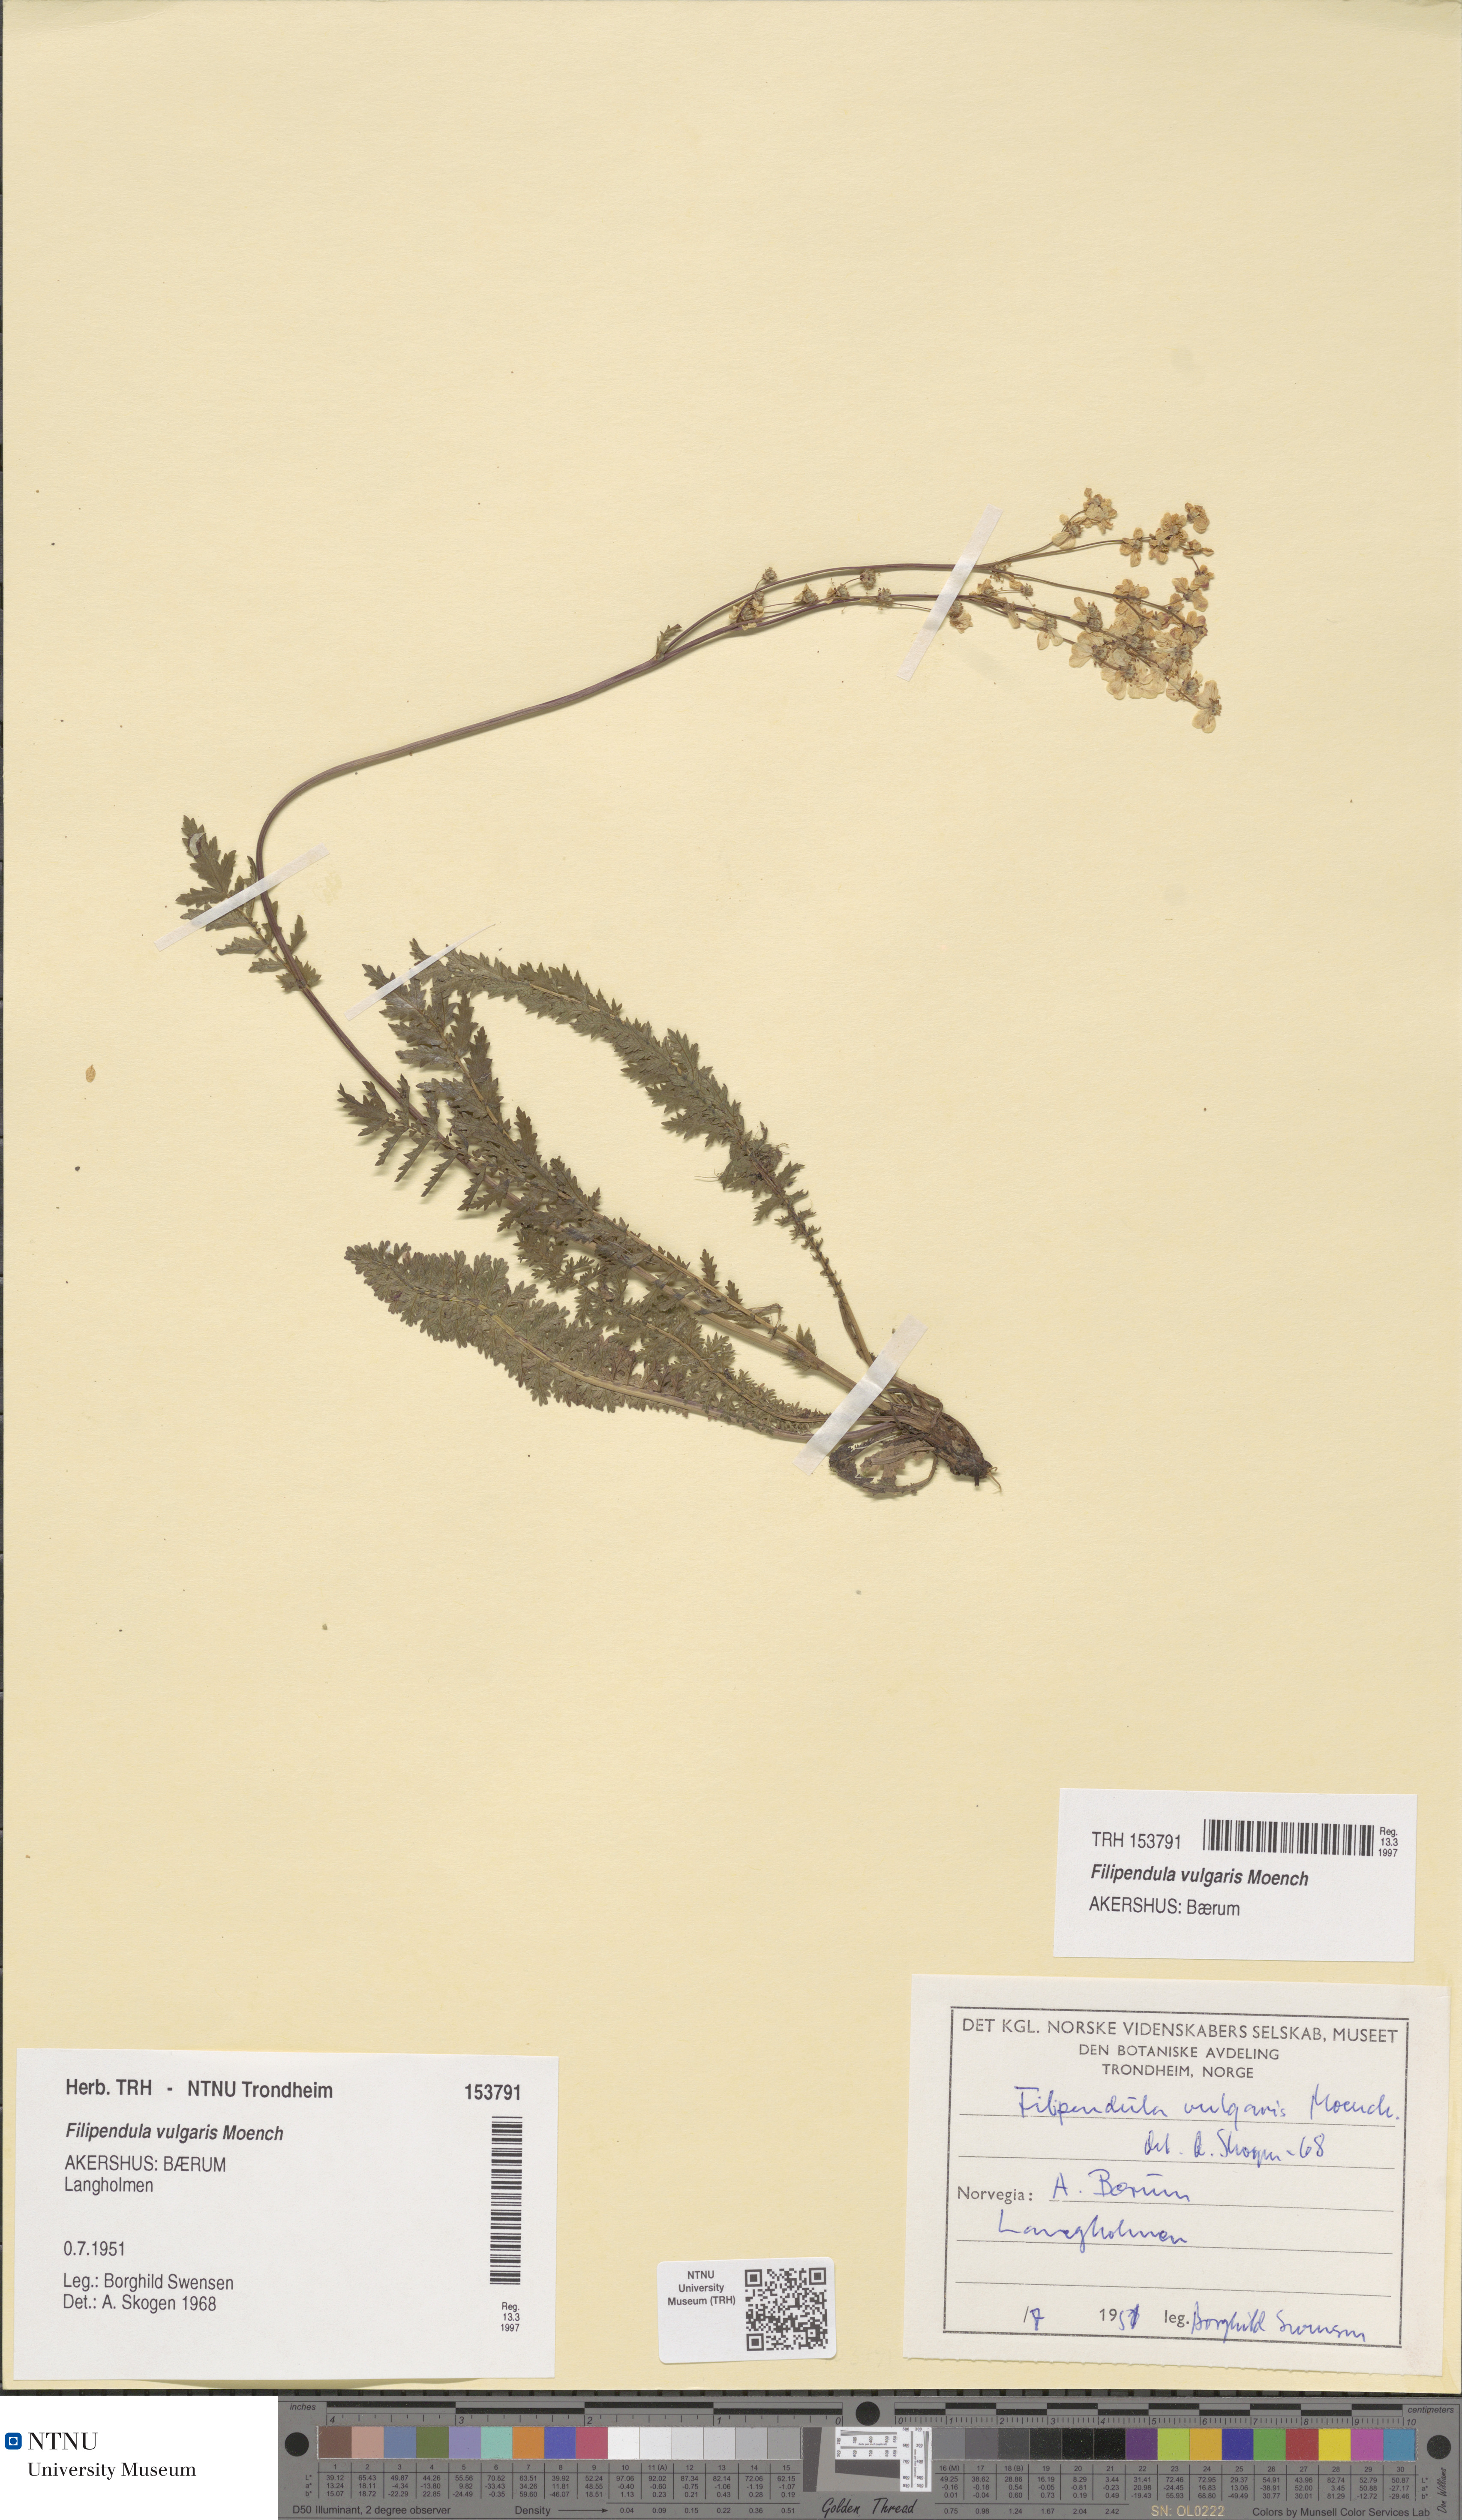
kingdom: Plantae
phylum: Tracheophyta
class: Magnoliopsida
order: Rosales
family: Rosaceae
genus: Filipendula
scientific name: Filipendula vulgaris
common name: Dropwort
